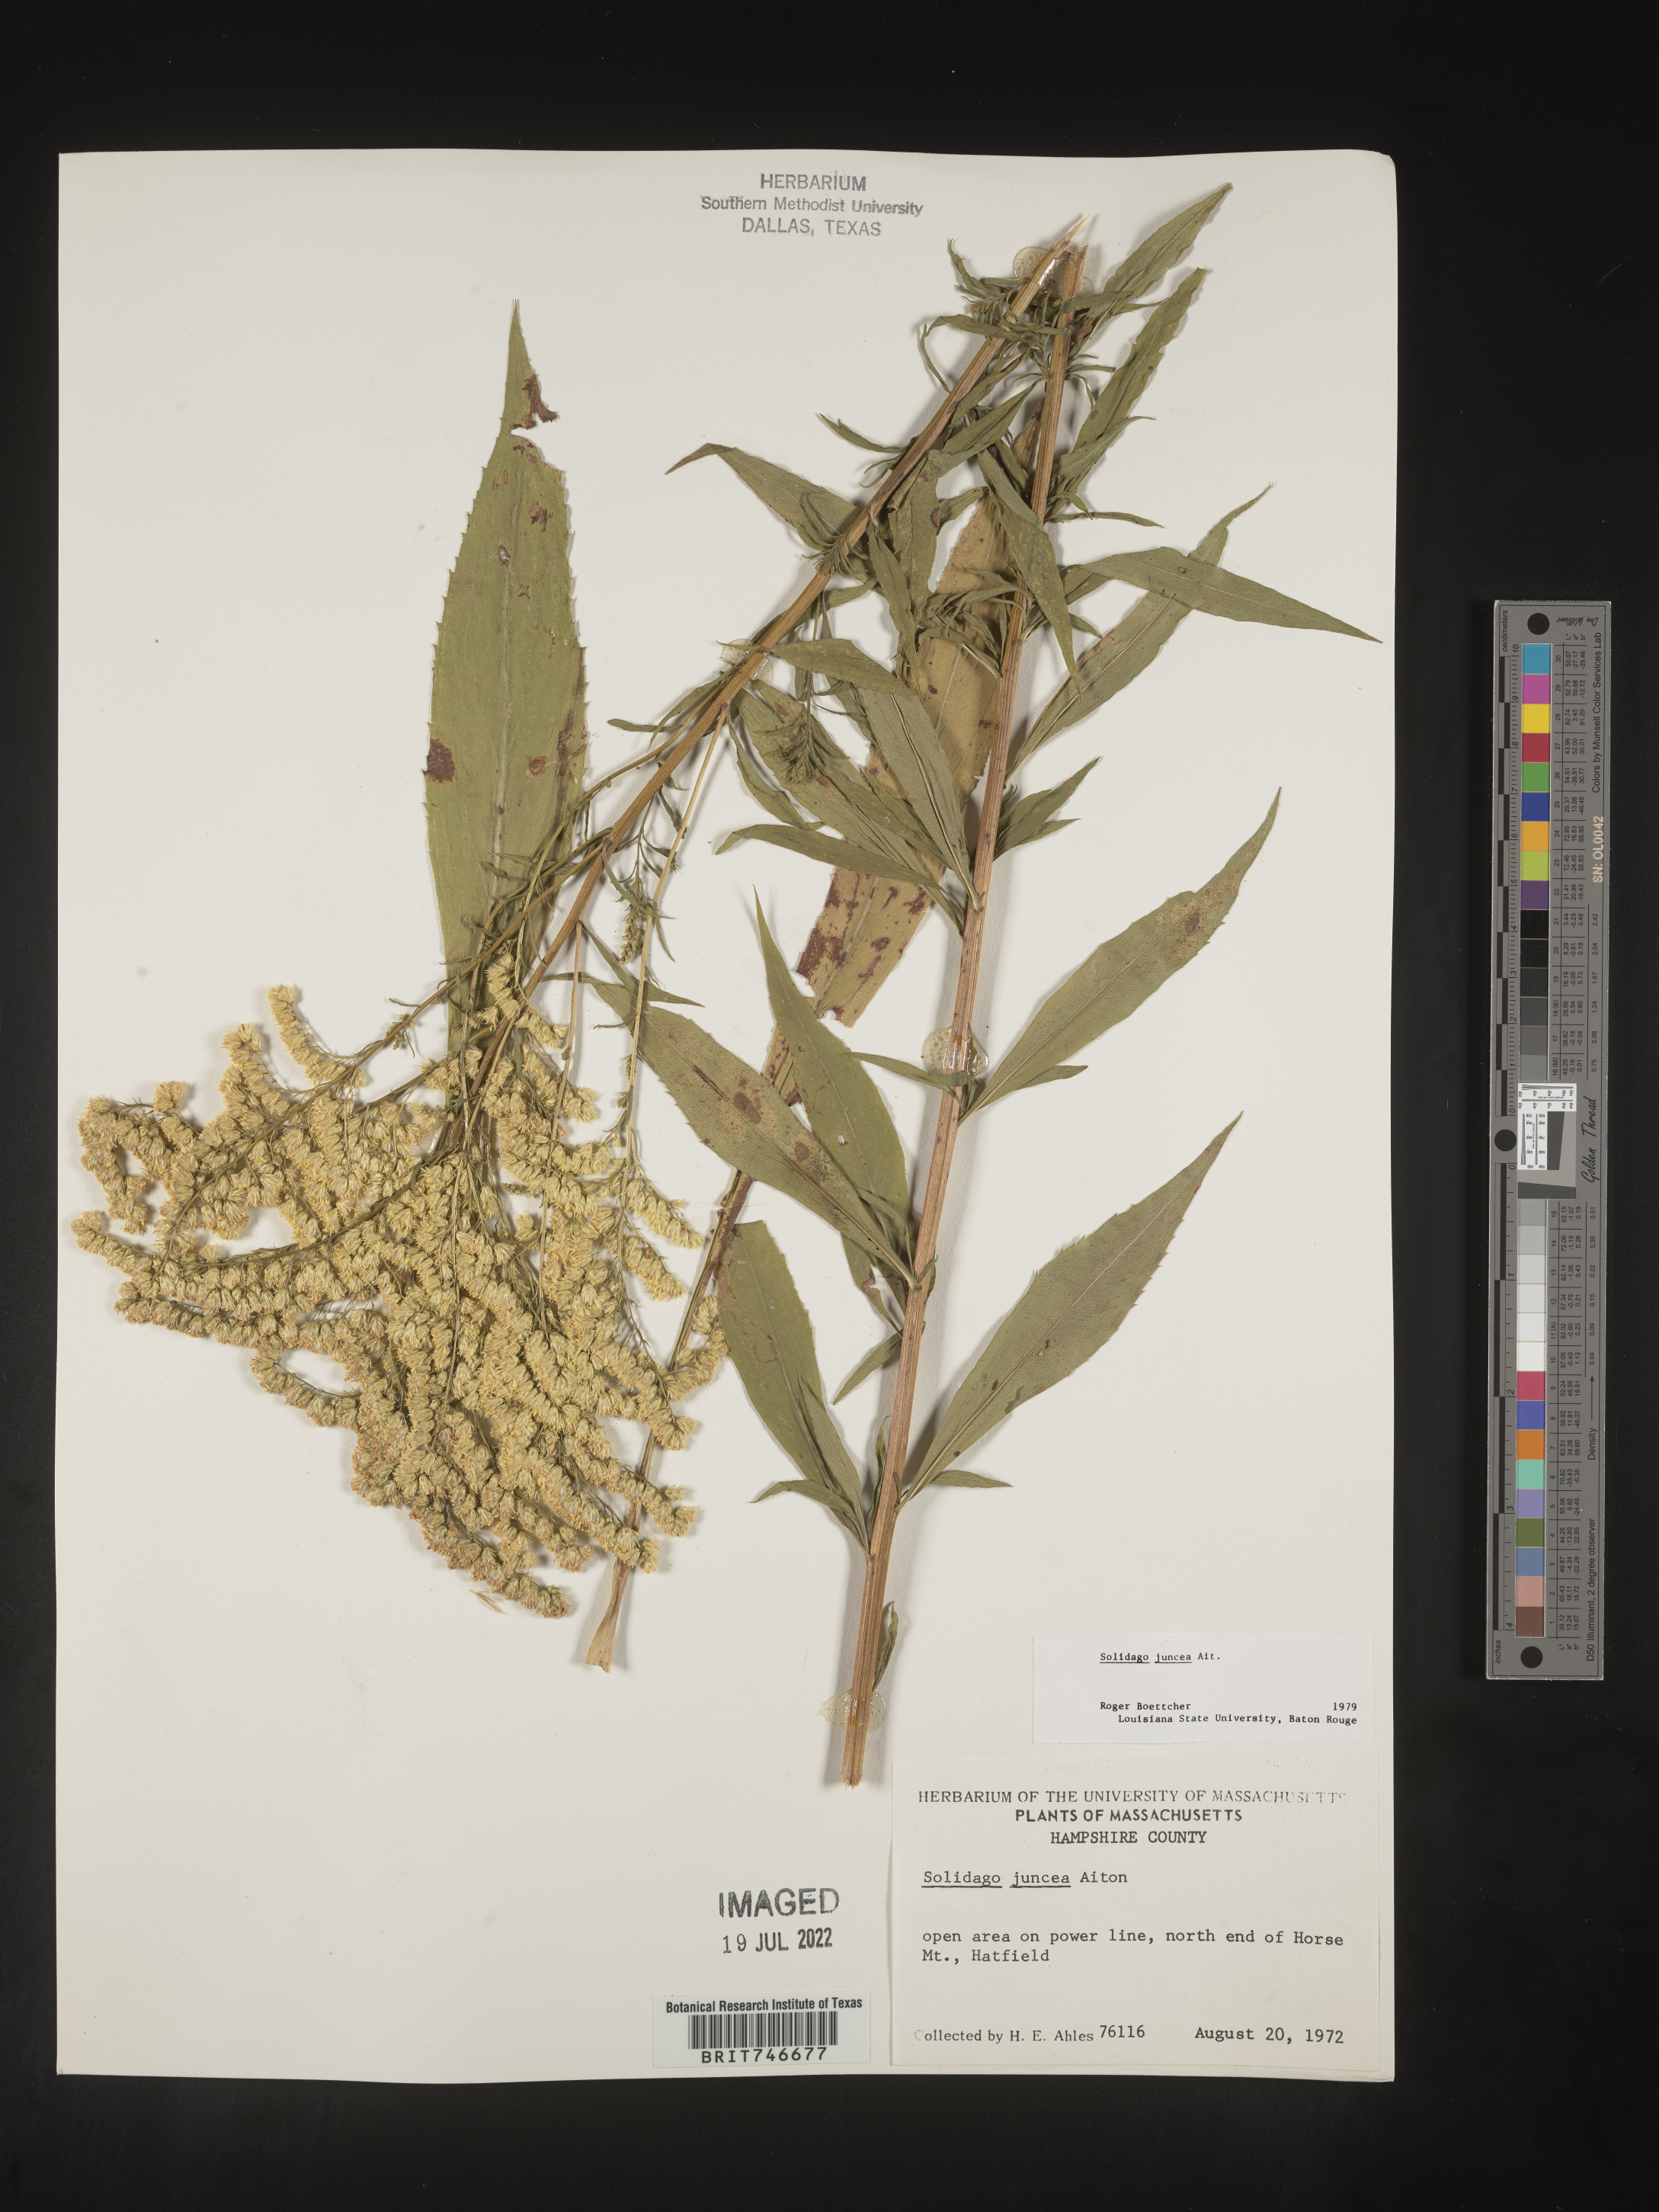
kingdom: Plantae
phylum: Tracheophyta
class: Magnoliopsida
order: Asterales
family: Asteraceae
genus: Solidago
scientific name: Solidago juncea
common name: Early goldenrod
